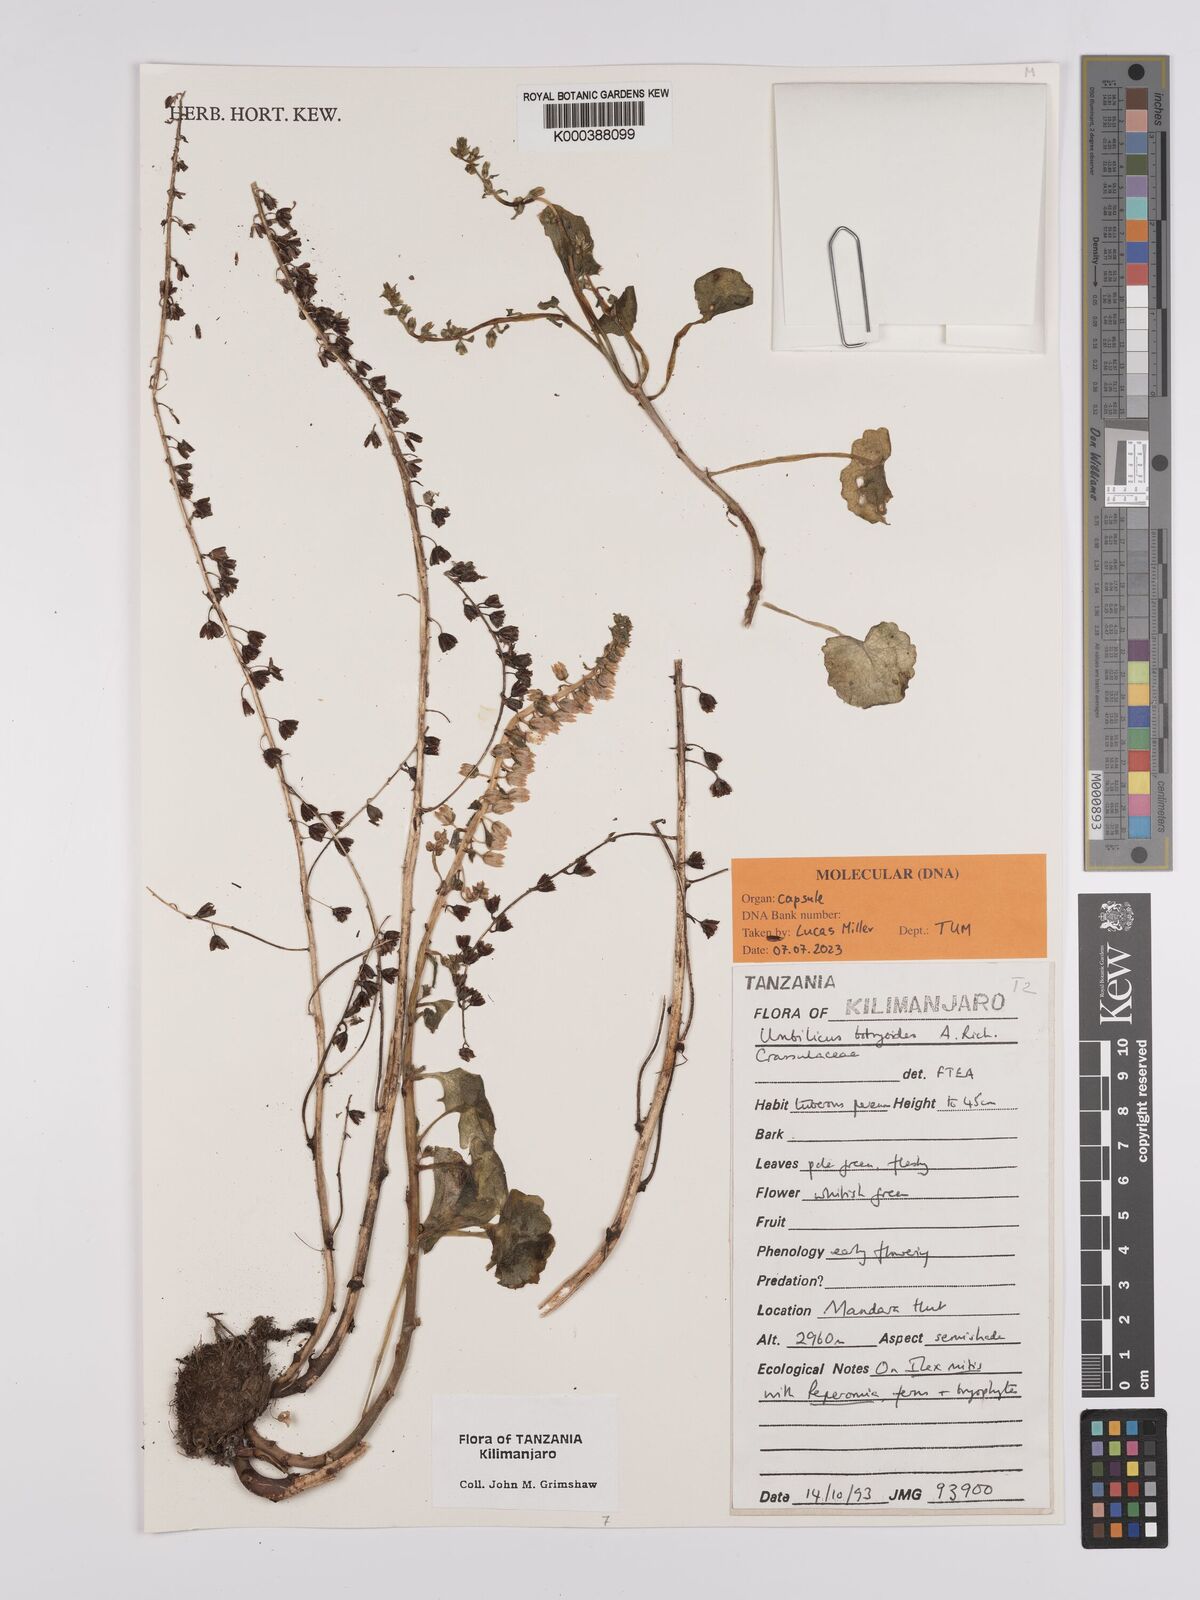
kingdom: Plantae
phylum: Tracheophyta
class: Magnoliopsida
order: Saxifragales
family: Crassulaceae
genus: Umbilicus
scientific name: Umbilicus botryoides
